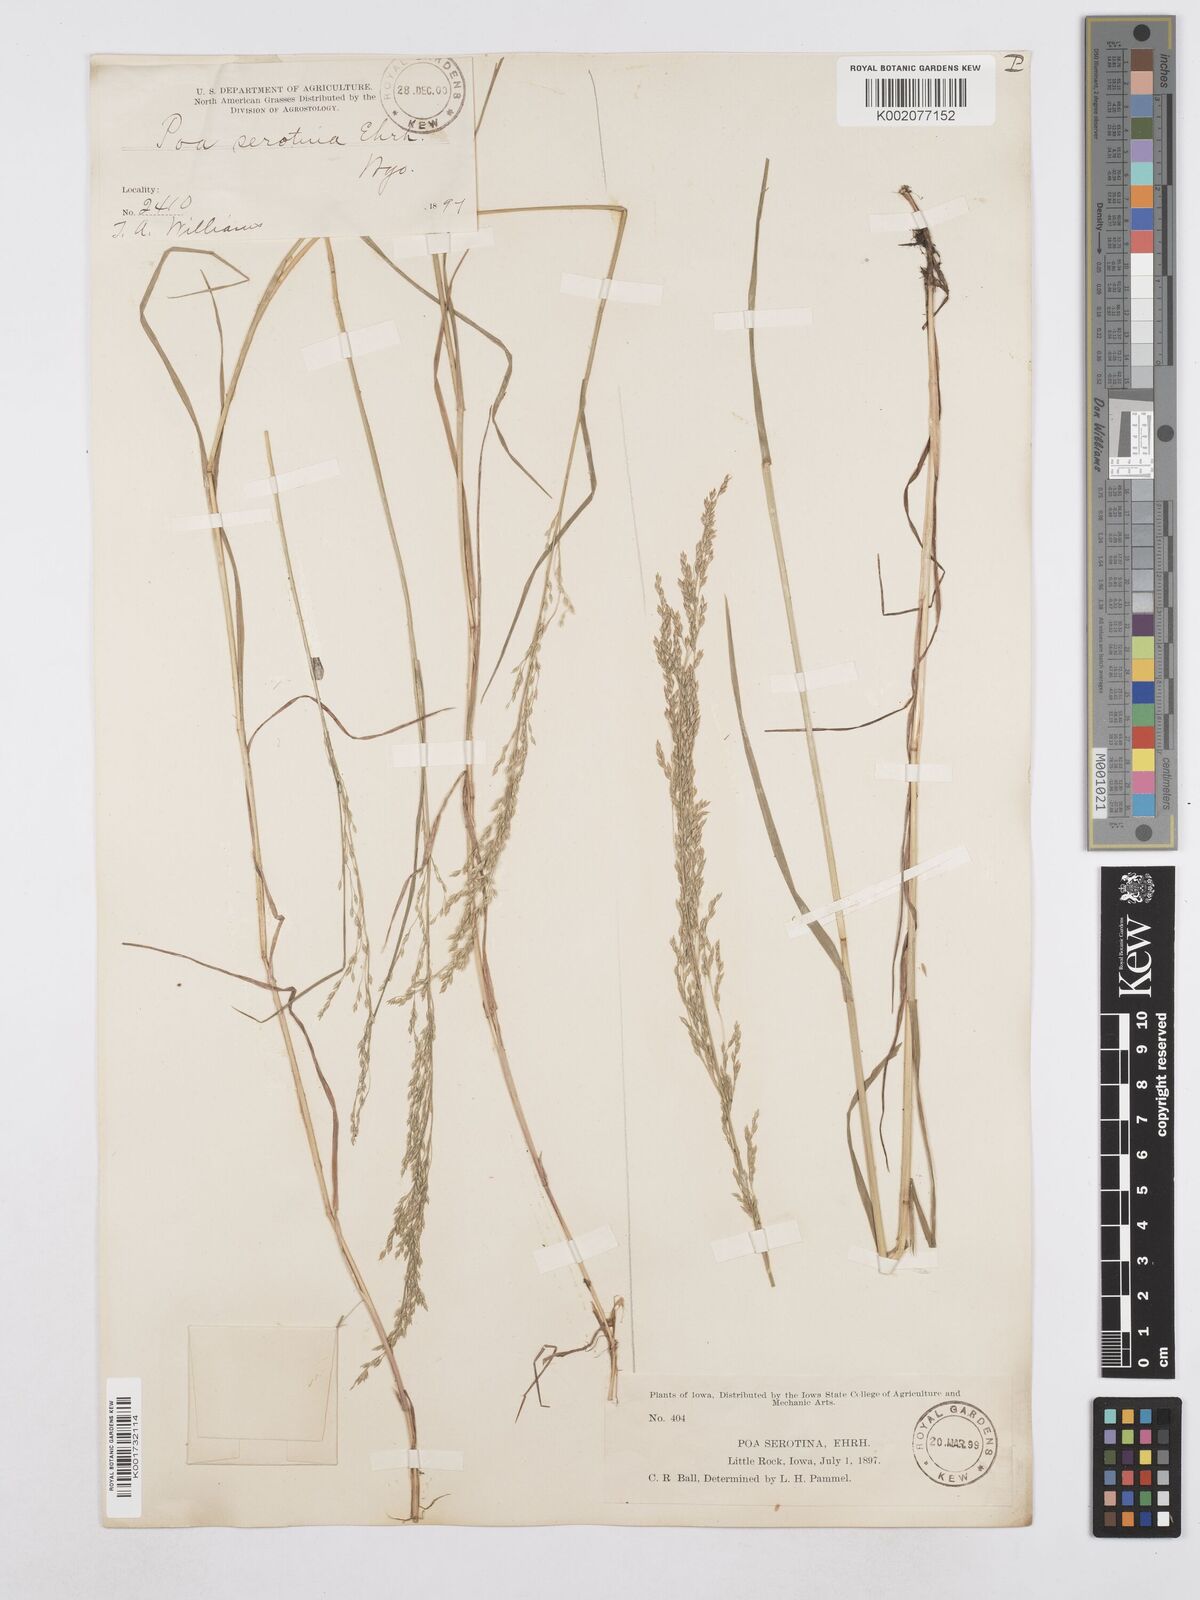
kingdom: Plantae
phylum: Tracheophyta
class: Liliopsida
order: Poales
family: Poaceae
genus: Poa
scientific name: Poa palustris
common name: Swamp meadow-grass
